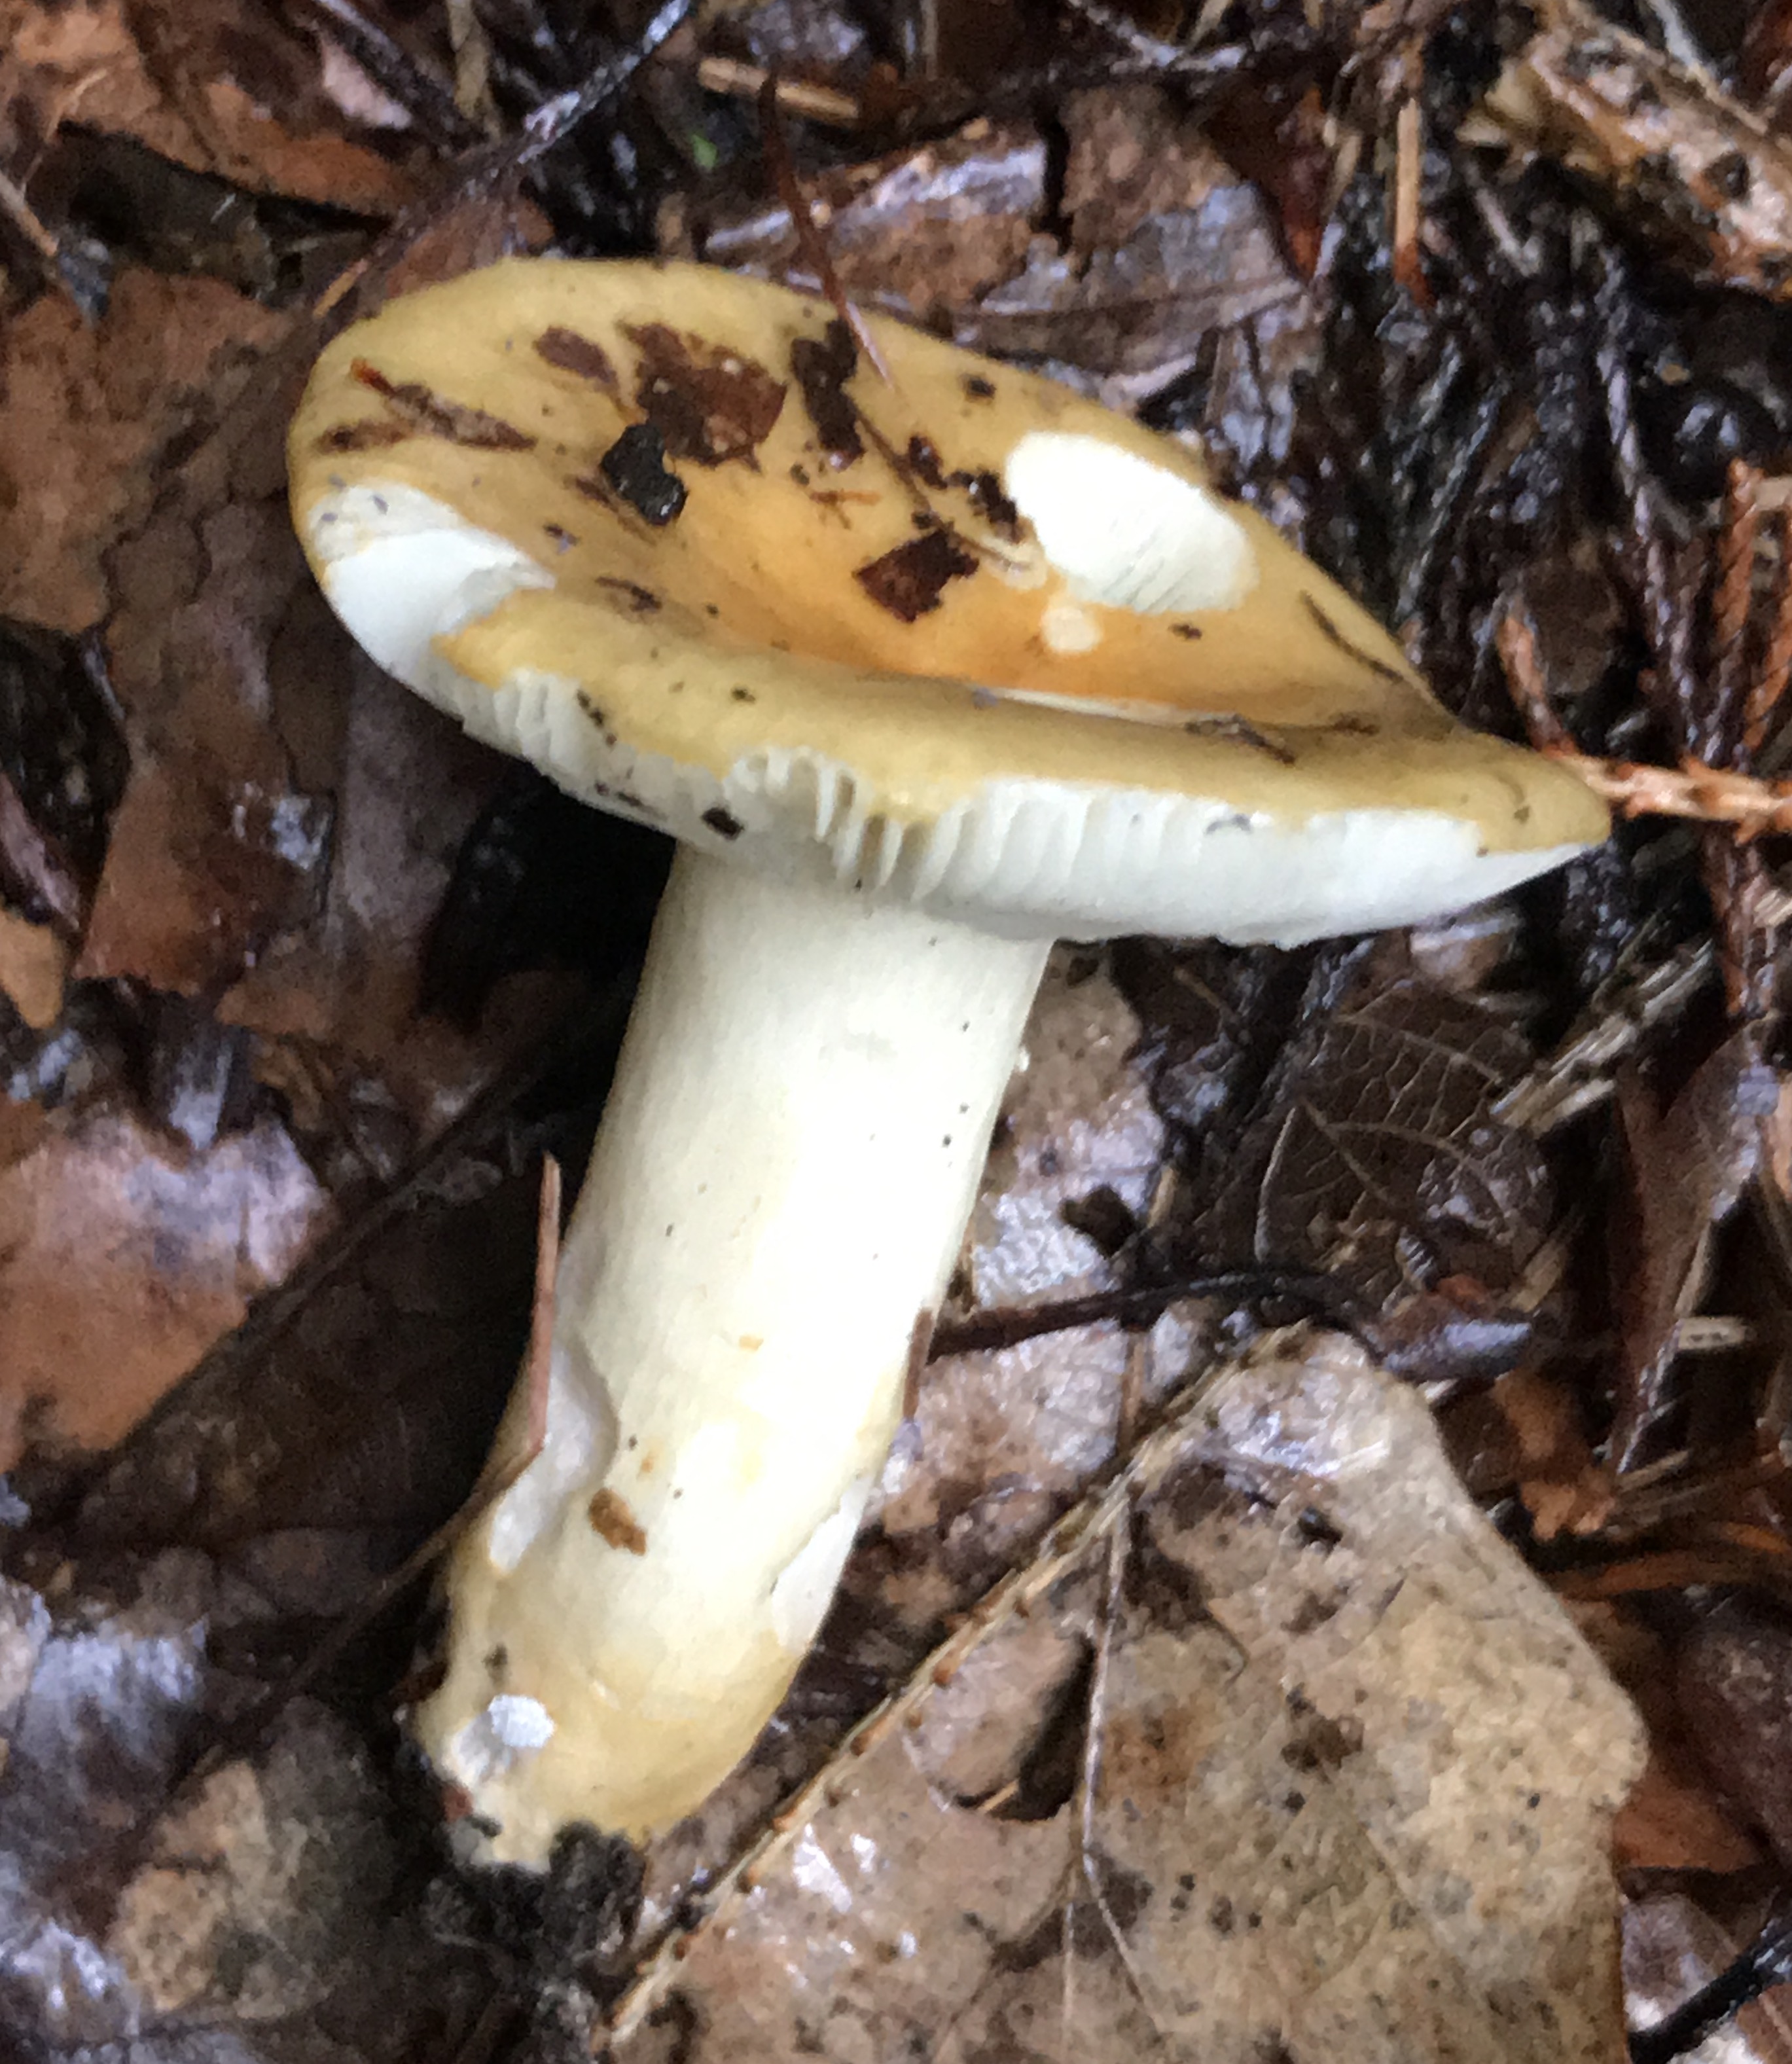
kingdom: Fungi
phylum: Basidiomycota
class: Agaricomycetes
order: Russulales
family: Russulaceae
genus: Russula
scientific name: Russula ochroleuca
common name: okkergul skørhat
